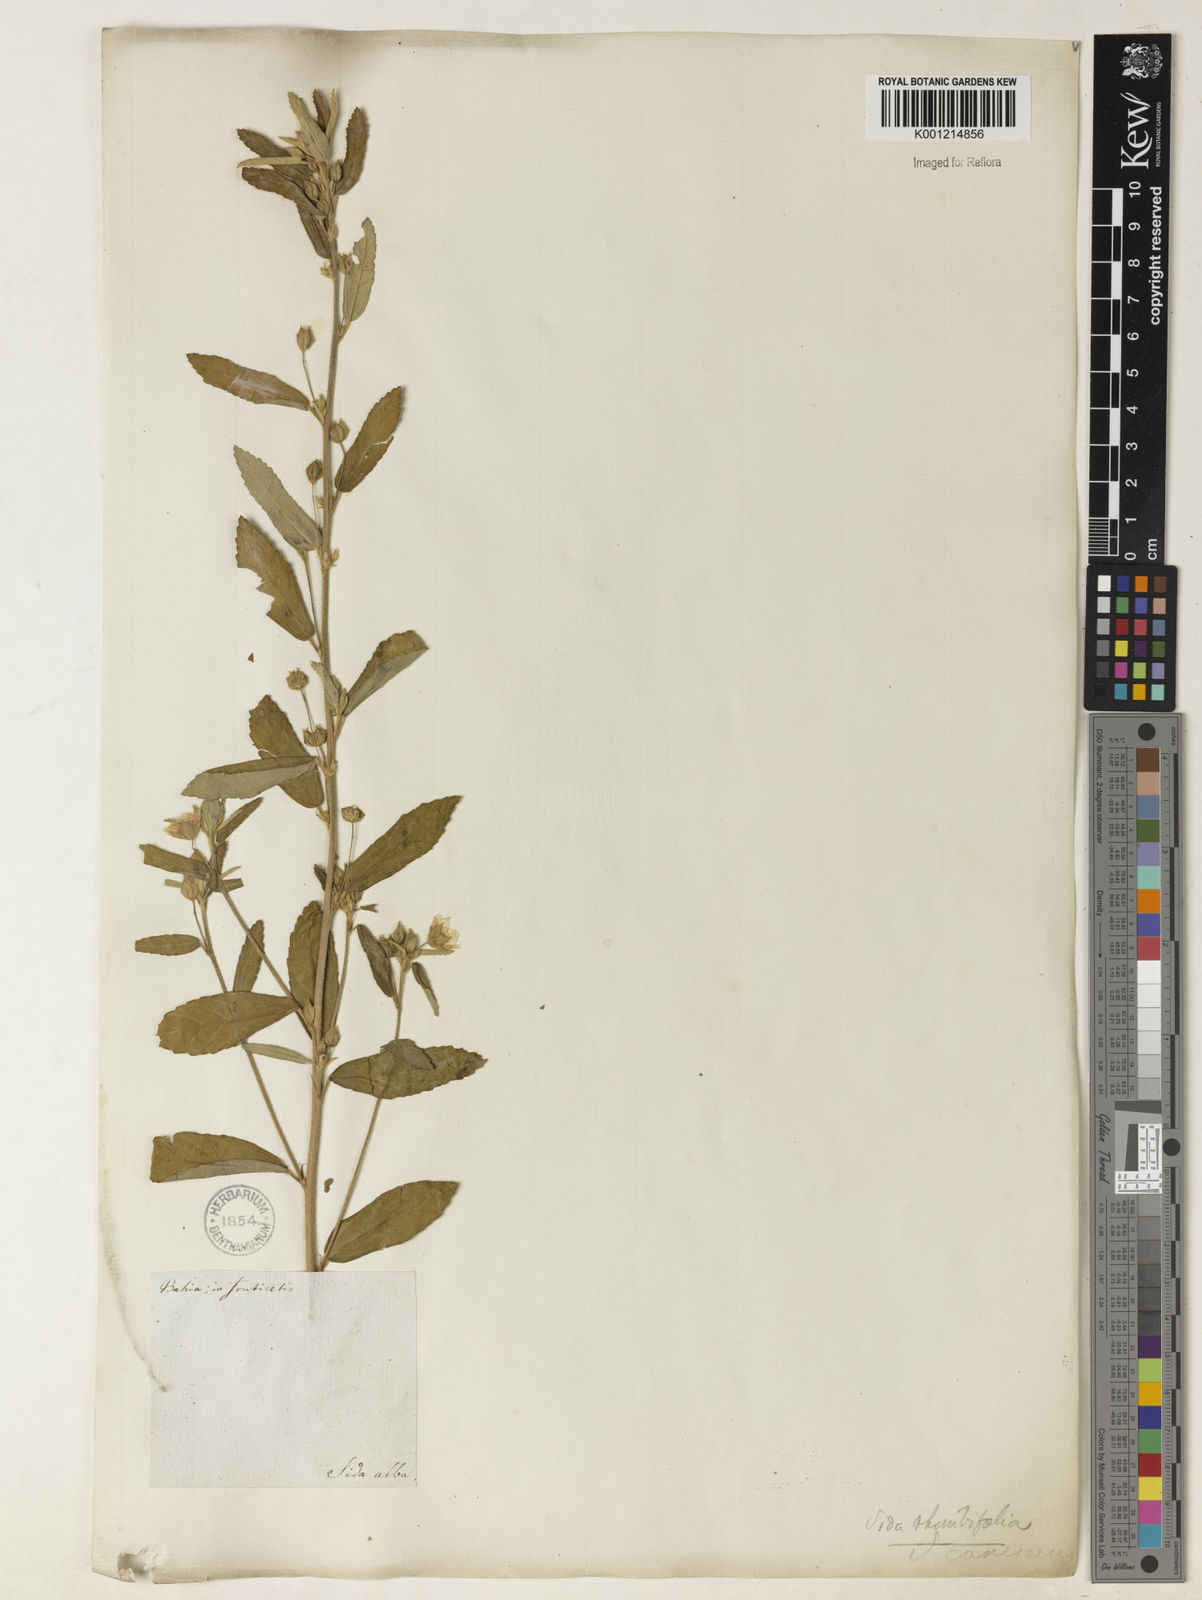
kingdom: Plantae
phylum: Tracheophyta
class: Magnoliopsida
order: Malvales
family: Malvaceae
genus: Sida
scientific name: Sida rhombifolia
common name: Queensland-hemp
